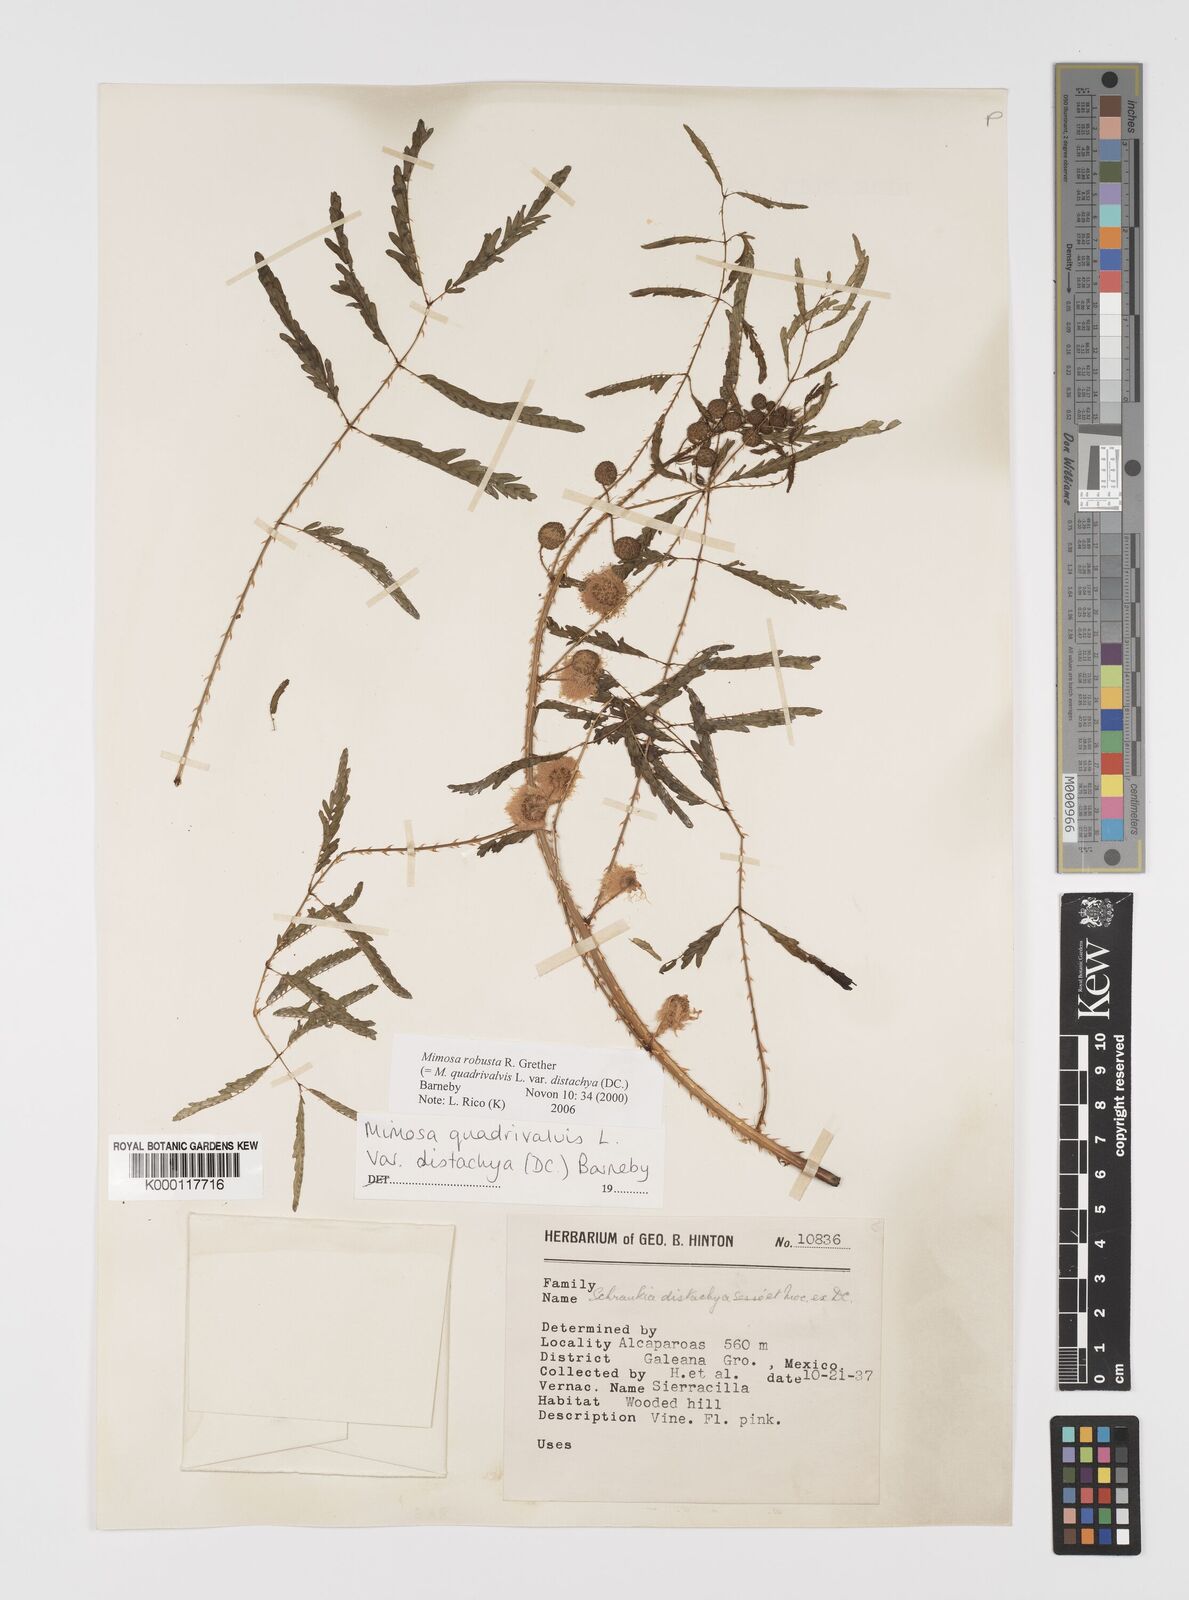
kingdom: Plantae
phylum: Tracheophyta
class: Magnoliopsida
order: Fabales
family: Fabaceae
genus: Mimosa
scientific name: Mimosa robusta
